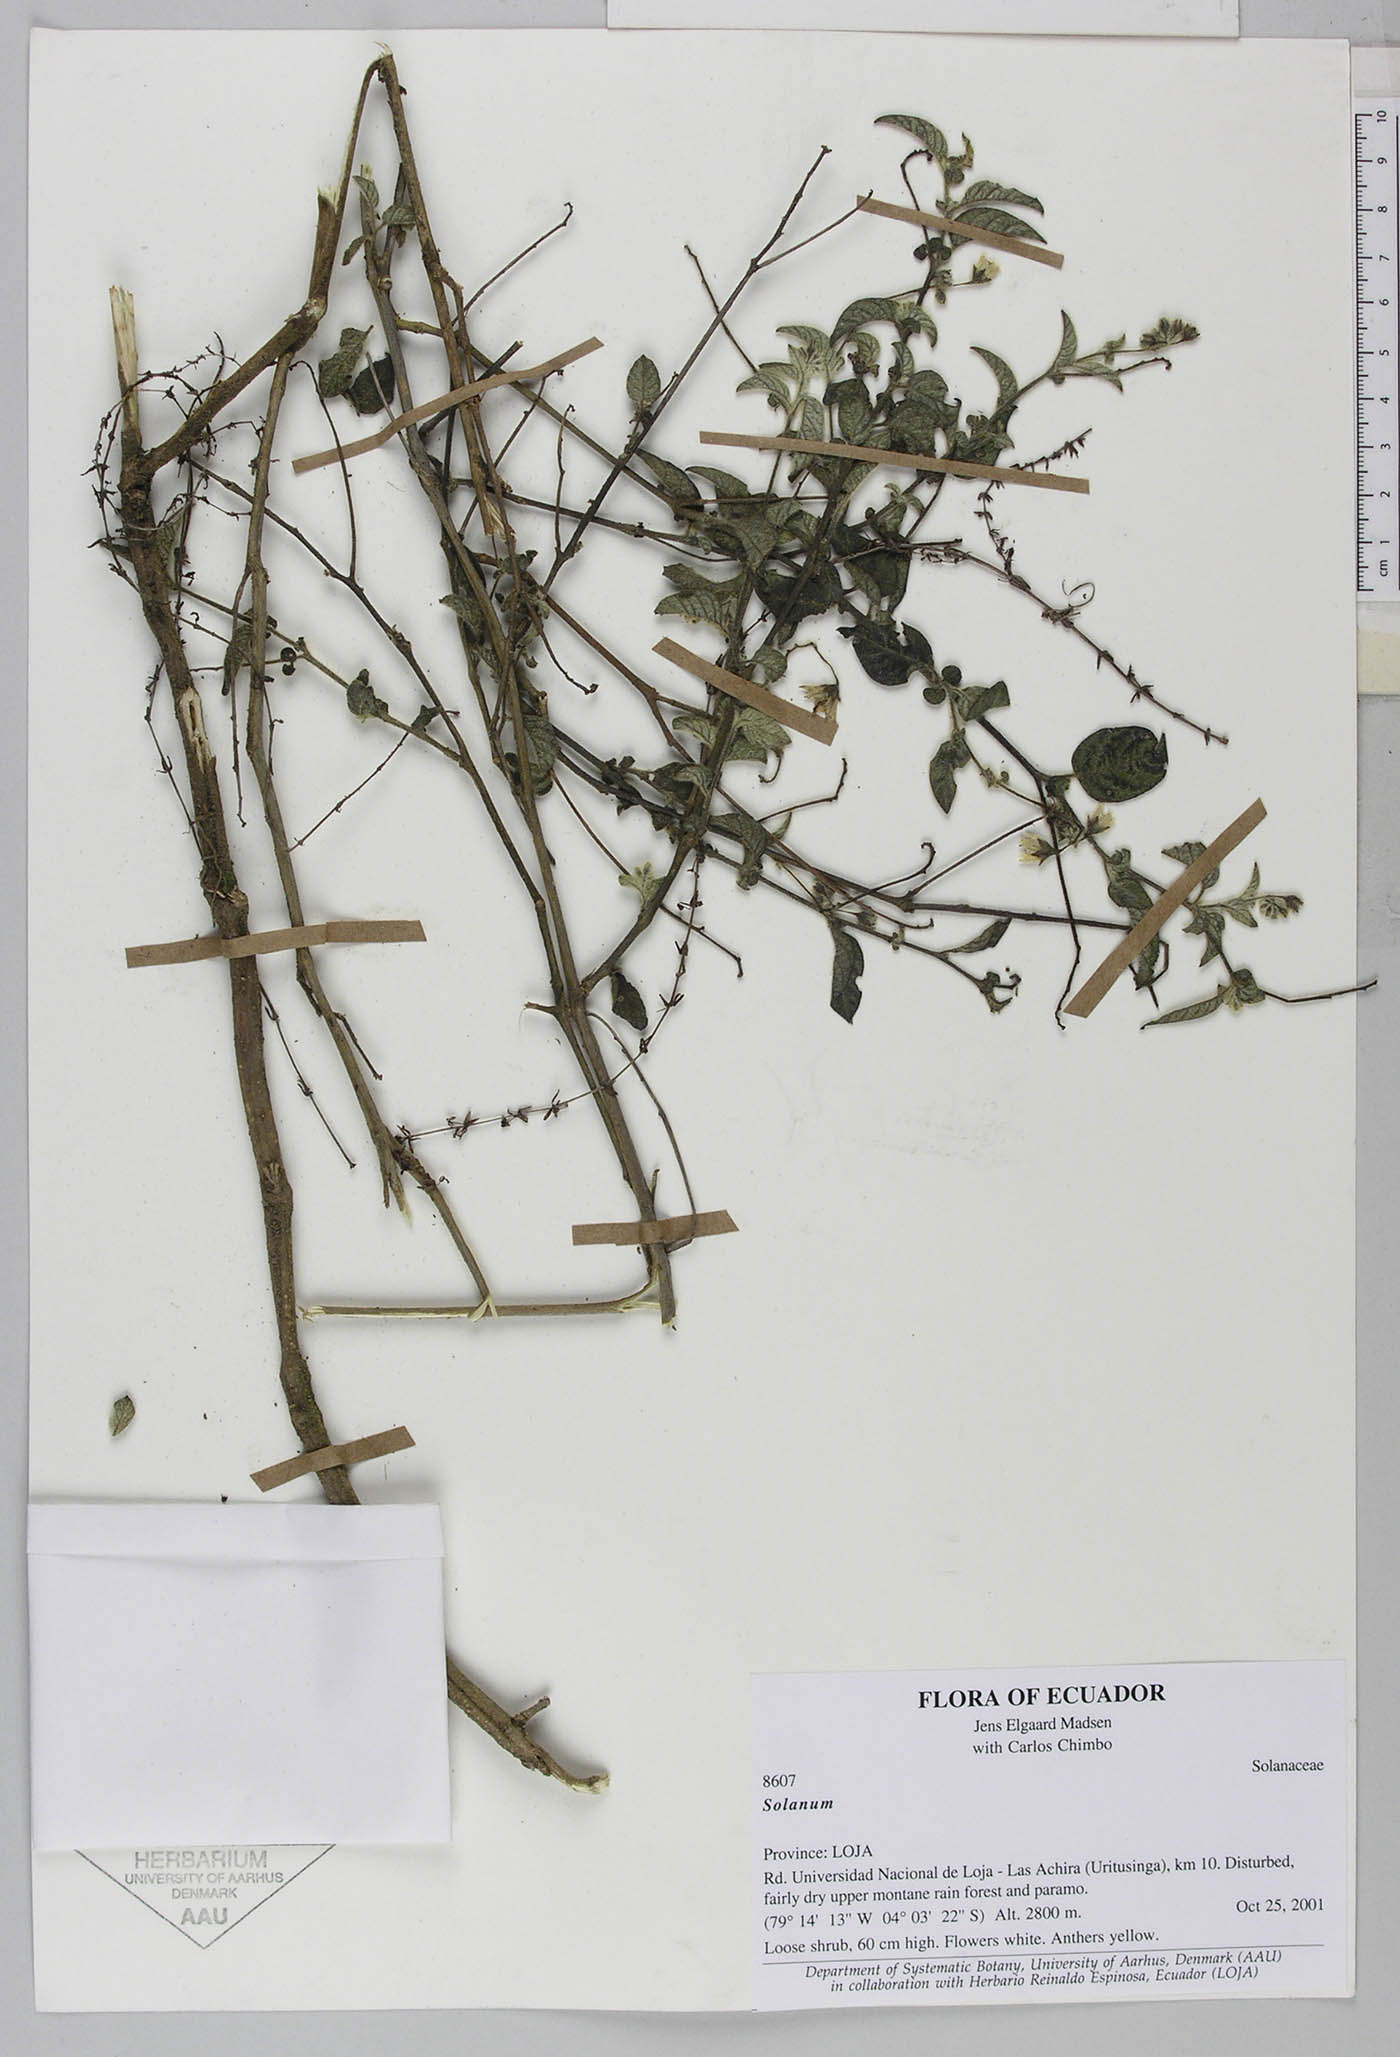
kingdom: Plantae
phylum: Tracheophyta
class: Magnoliopsida
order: Solanales
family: Solanaceae
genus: Solanum
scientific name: Solanum caripense
